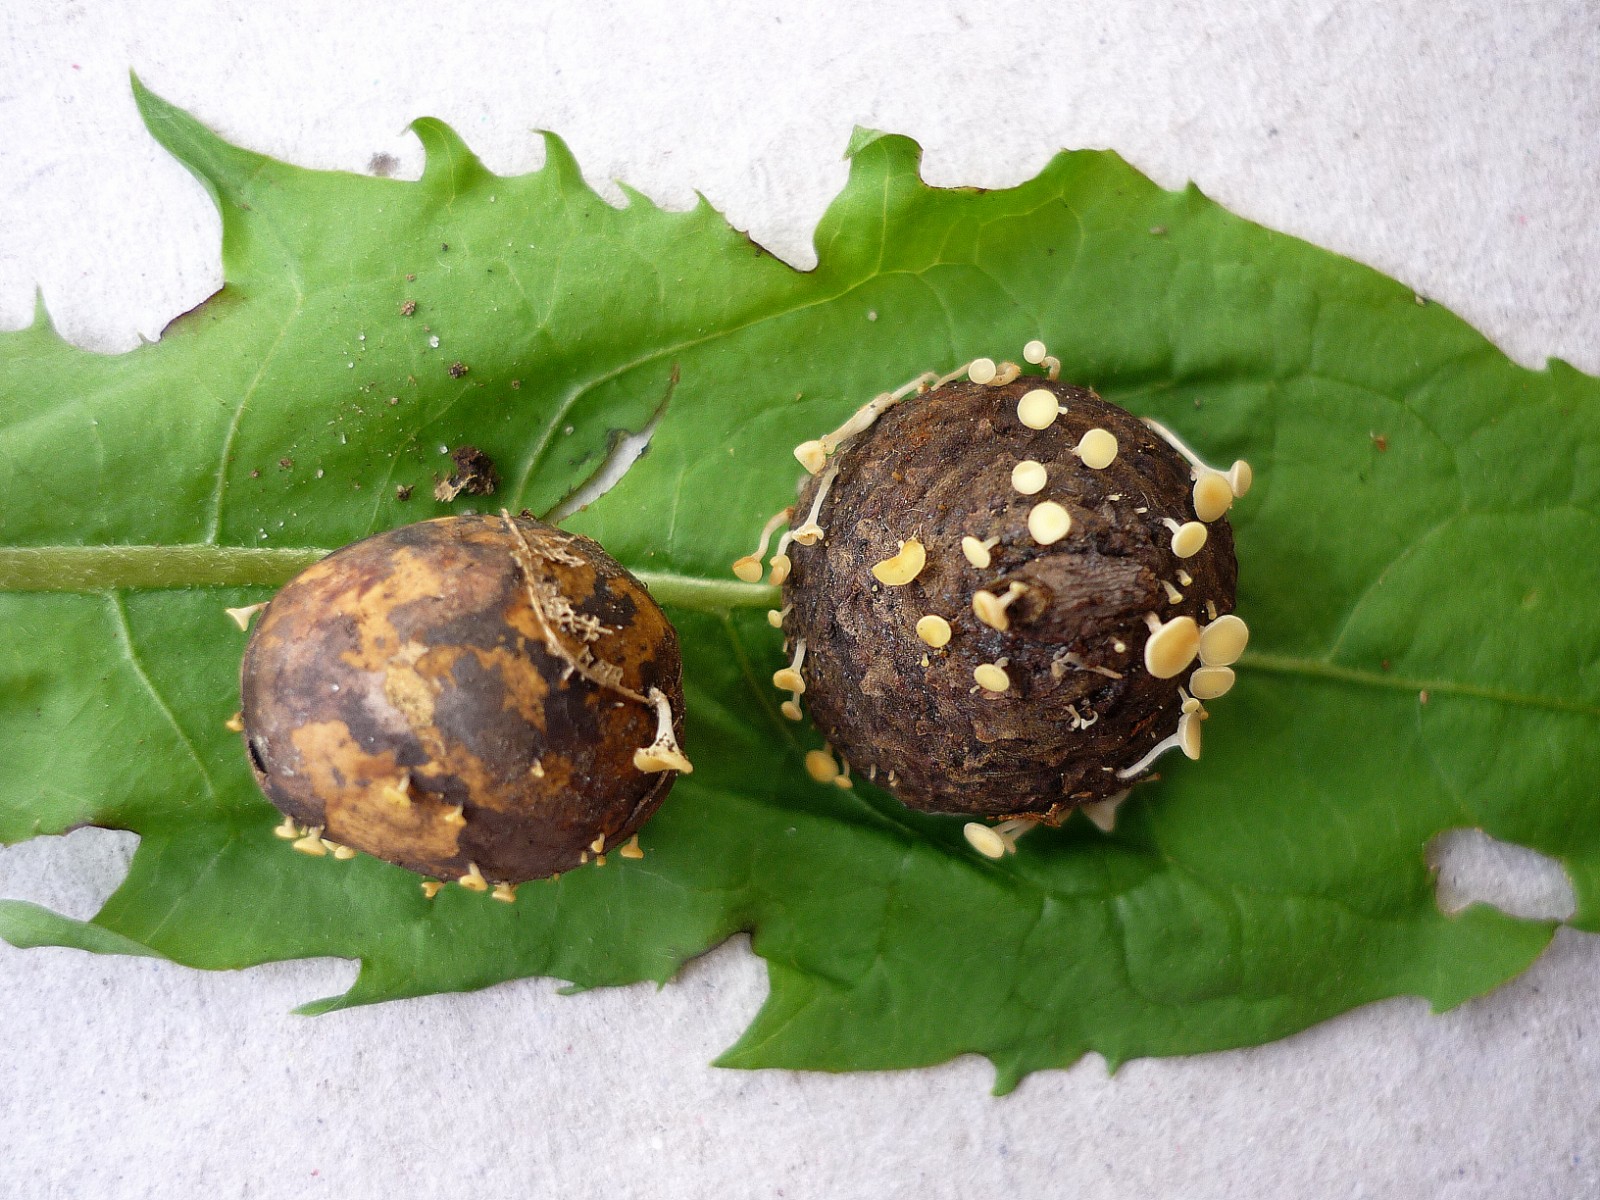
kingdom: Fungi
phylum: Ascomycota
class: Leotiomycetes
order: Helotiales
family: Helotiaceae
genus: Hymenoscyphus
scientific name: Hymenoscyphus fructigenus
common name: frugt-stilkskive
